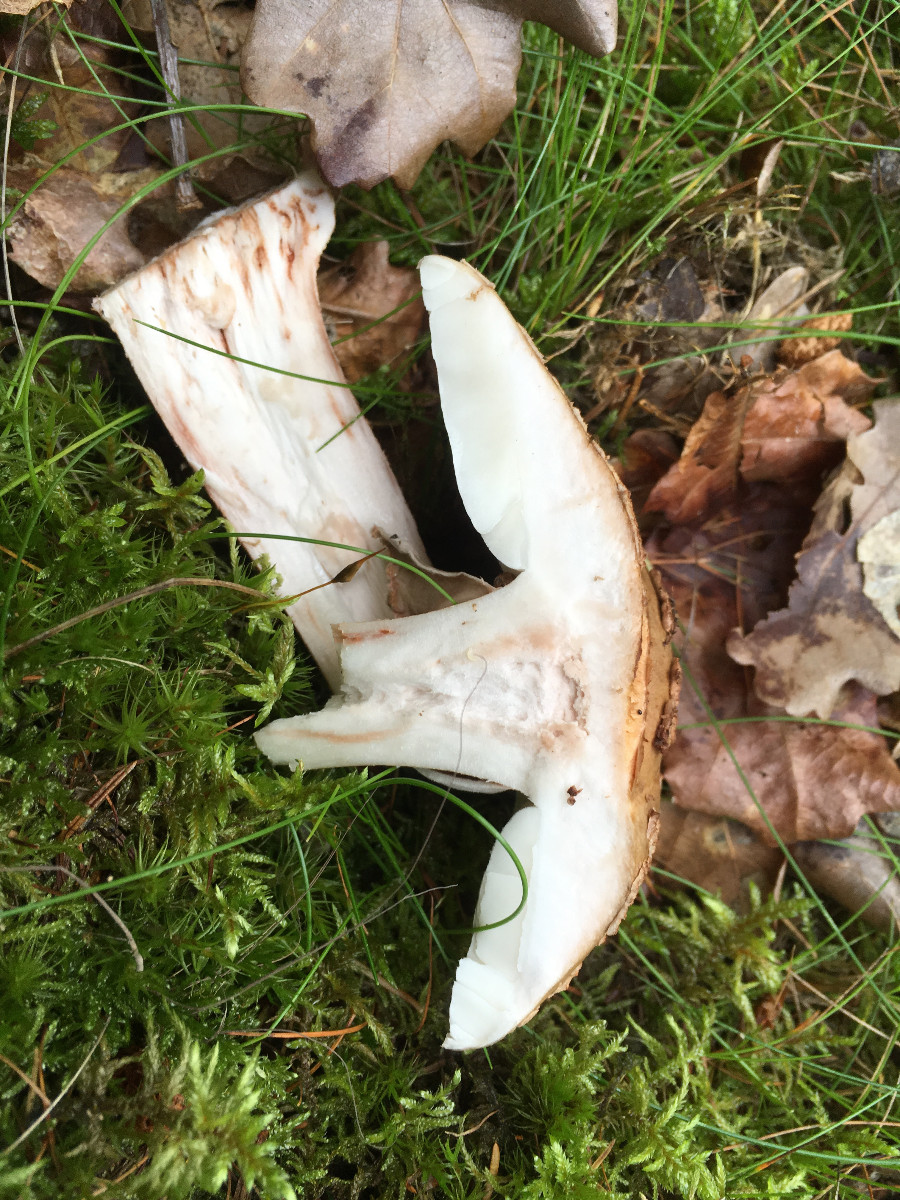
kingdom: Fungi
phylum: Basidiomycota
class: Agaricomycetes
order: Agaricales
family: Amanitaceae
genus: Amanita
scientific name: Amanita rubescens
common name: rødmende fluesvamp
